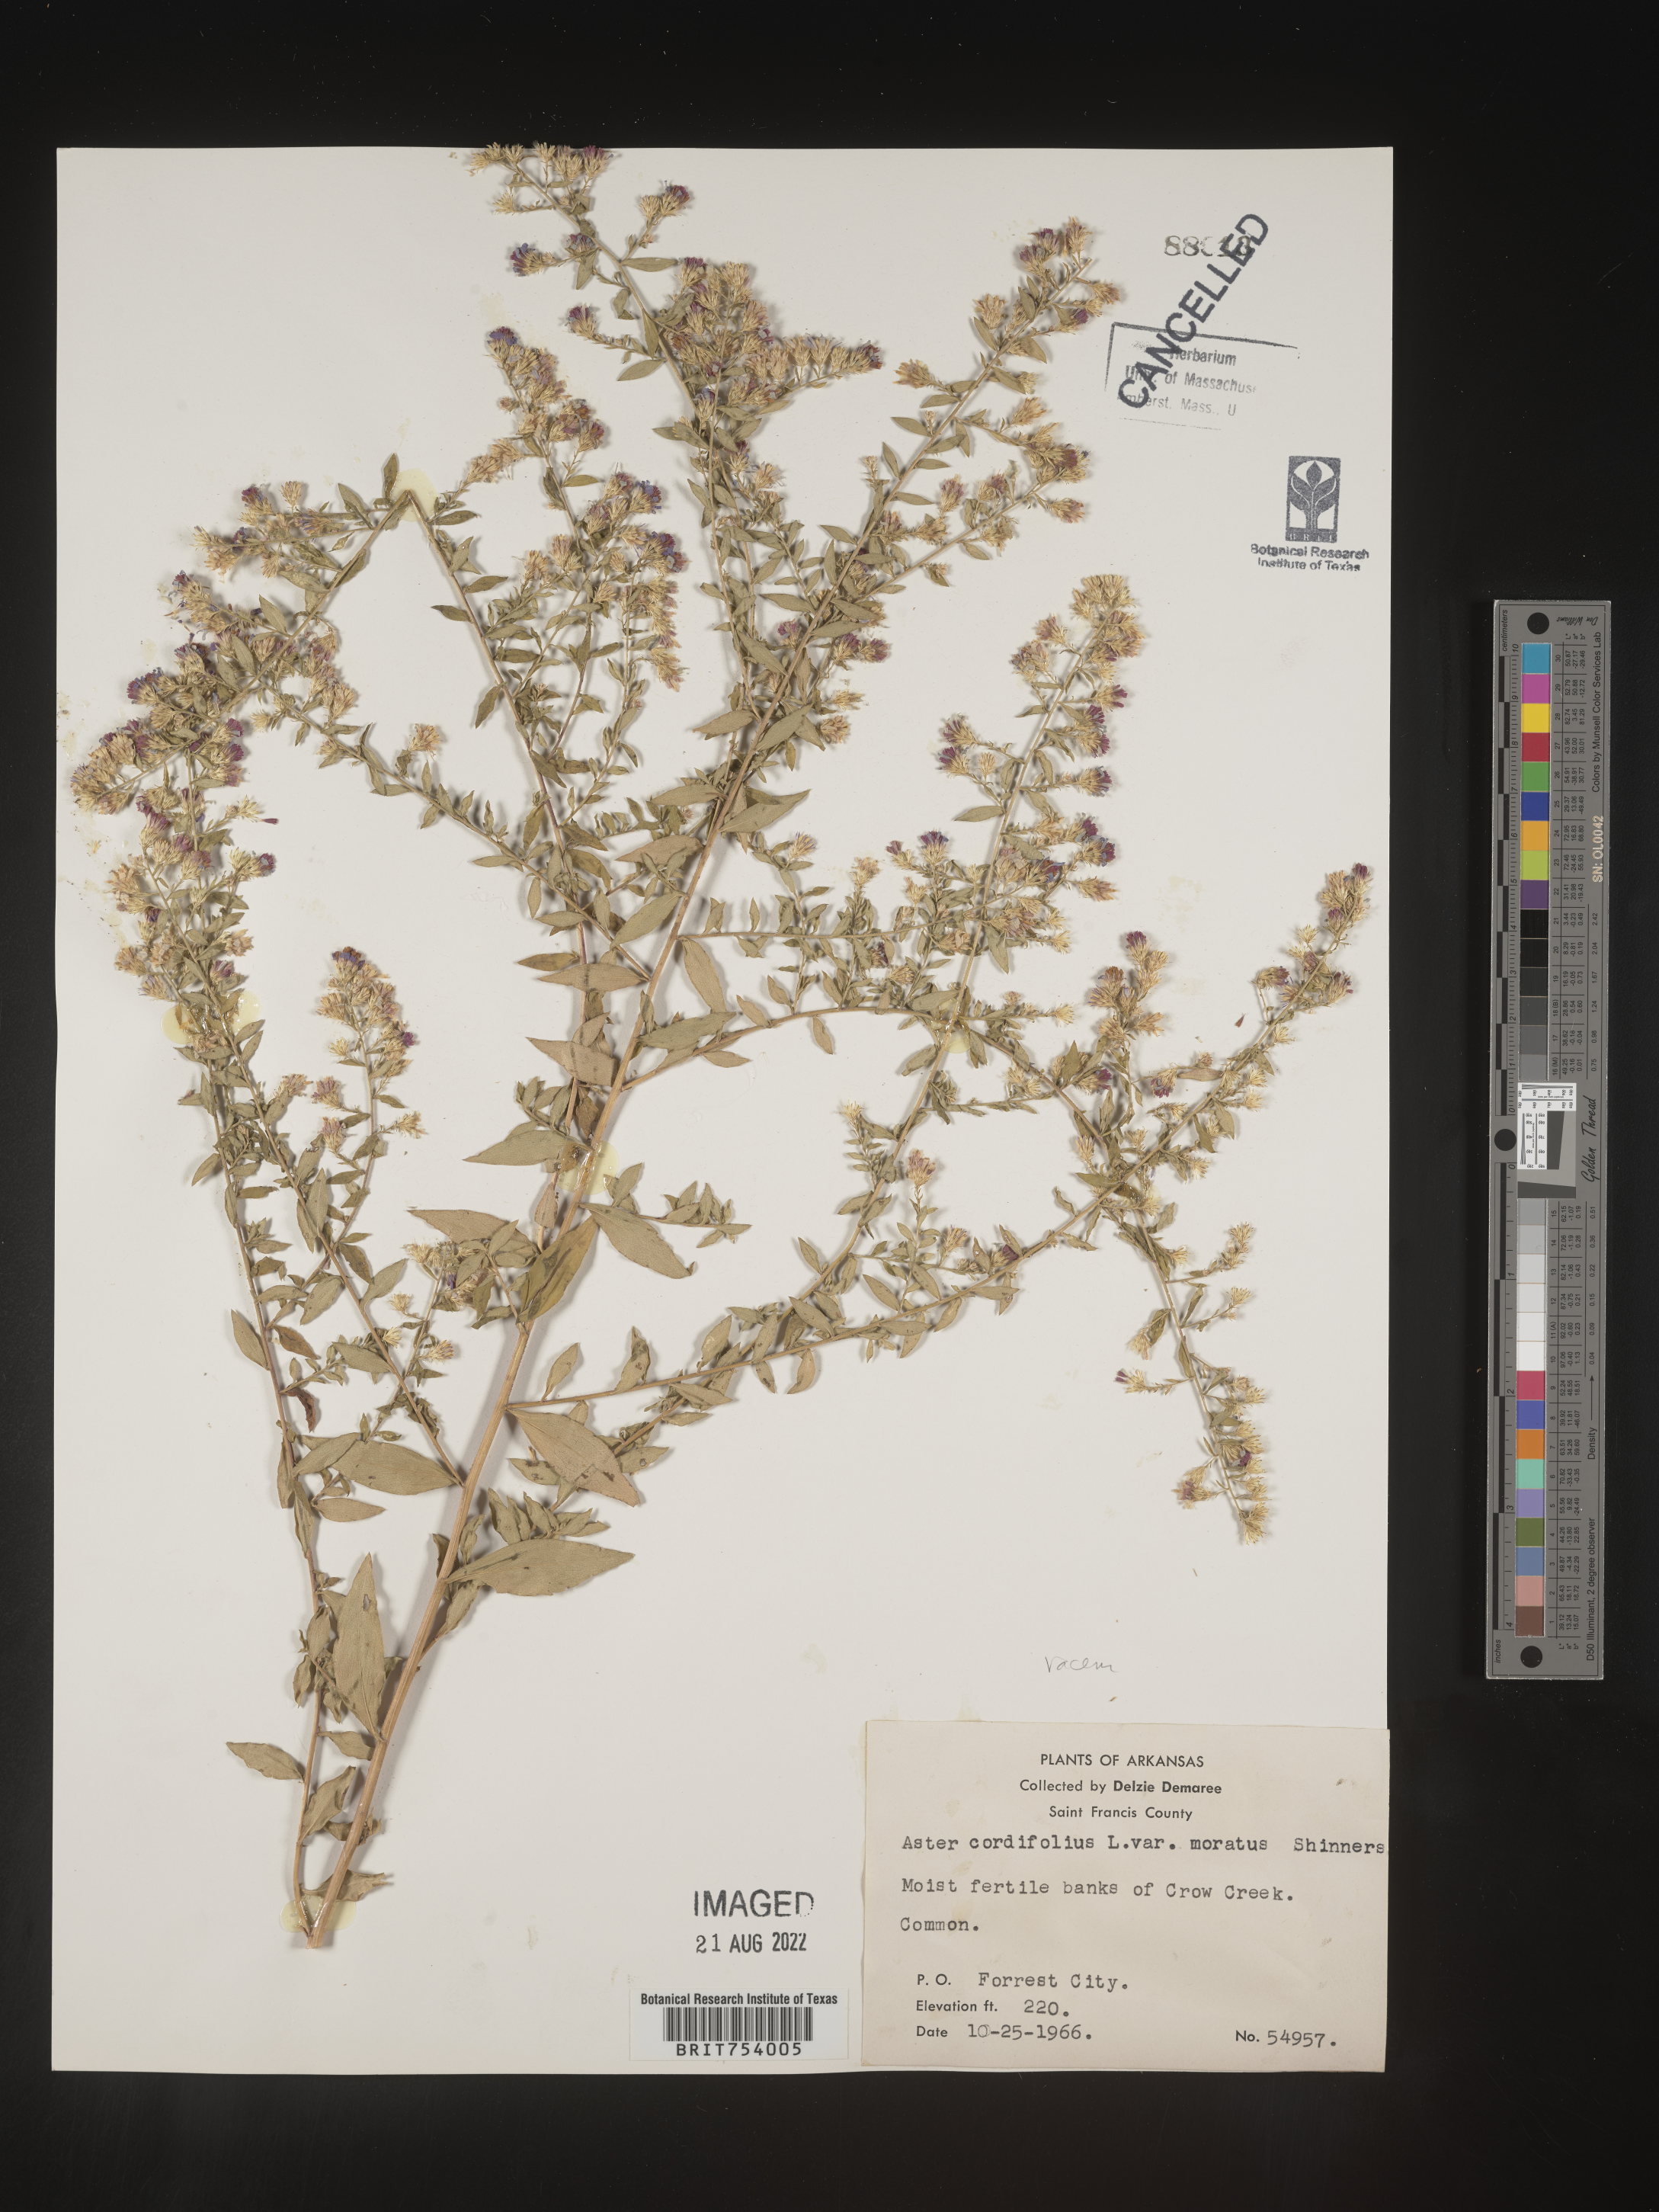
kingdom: Plantae
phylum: Tracheophyta
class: Magnoliopsida
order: Asterales
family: Asteraceae
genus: Symphyotrichum
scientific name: Symphyotrichum racemosum
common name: Small white aster
